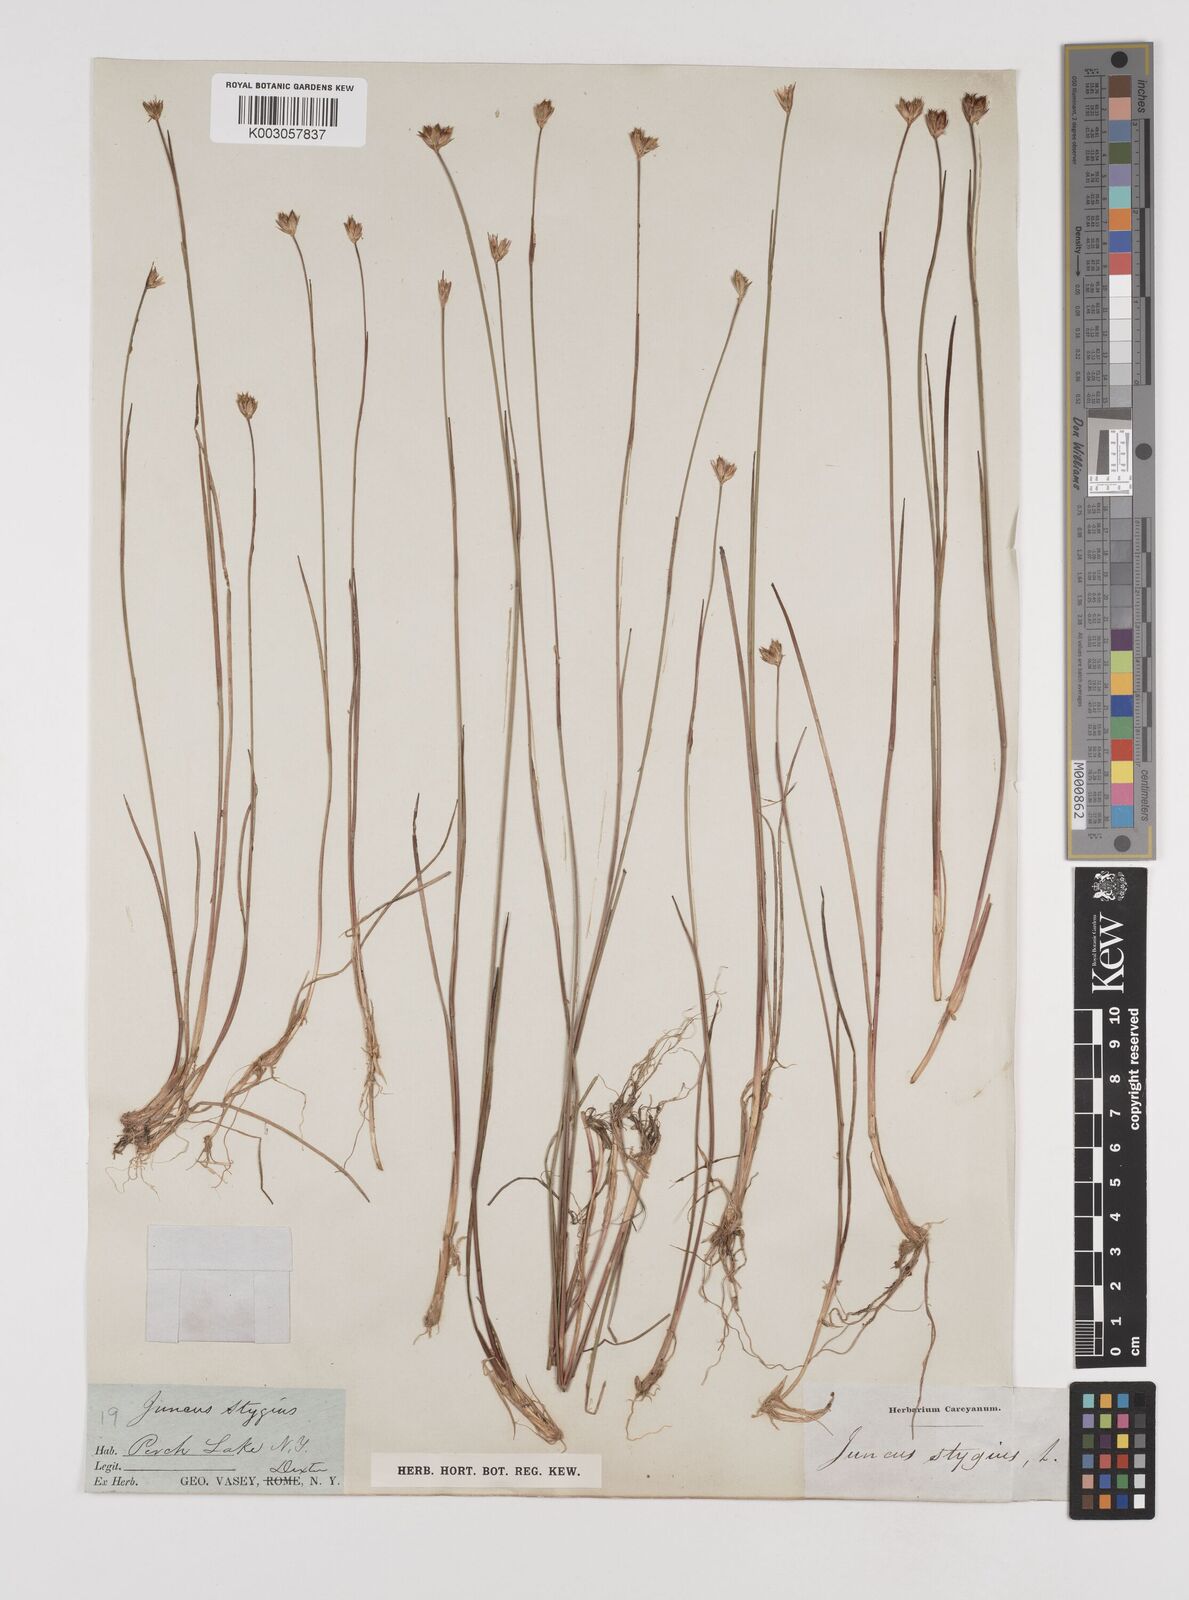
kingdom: Plantae
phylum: Tracheophyta
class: Liliopsida
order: Poales
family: Juncaceae
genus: Juncus
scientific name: Juncus stygius
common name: Bog rush
